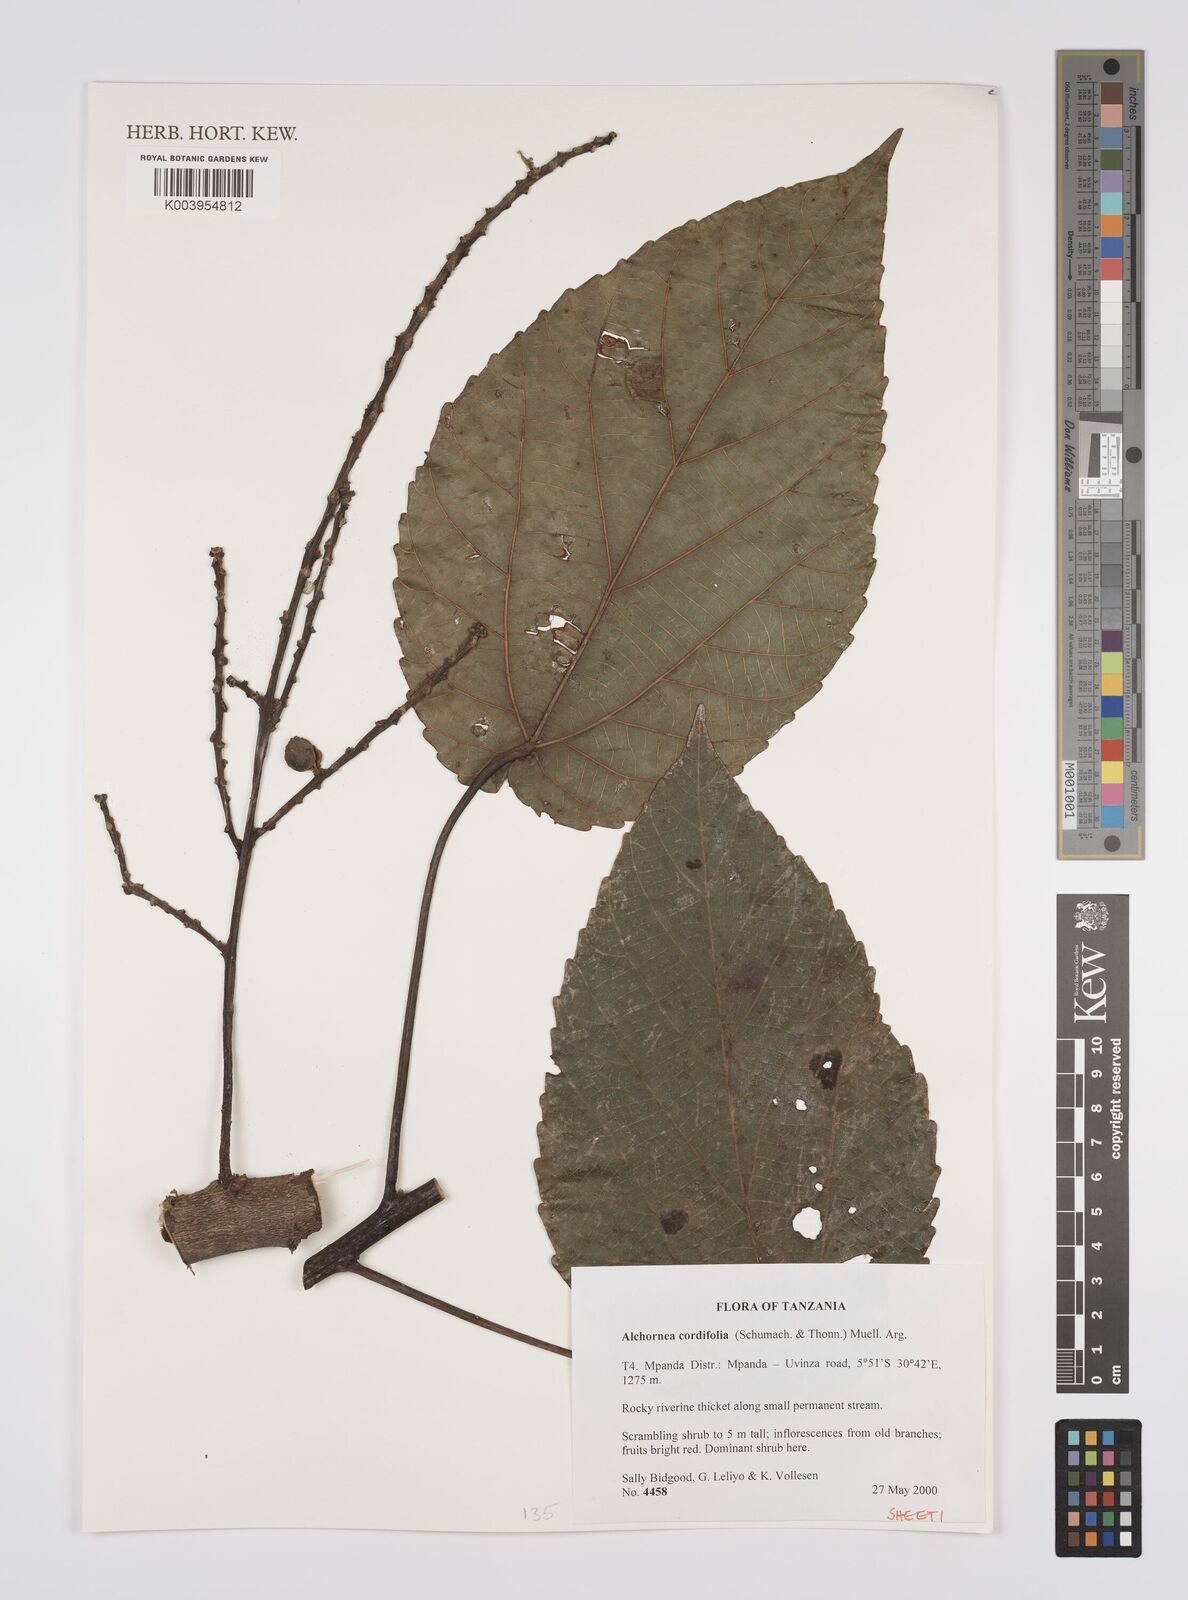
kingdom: Plantae
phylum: Tracheophyta
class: Magnoliopsida
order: Malpighiales
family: Euphorbiaceae
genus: Alchornea
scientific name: Alchornea cordifolia
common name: Christmasbush
